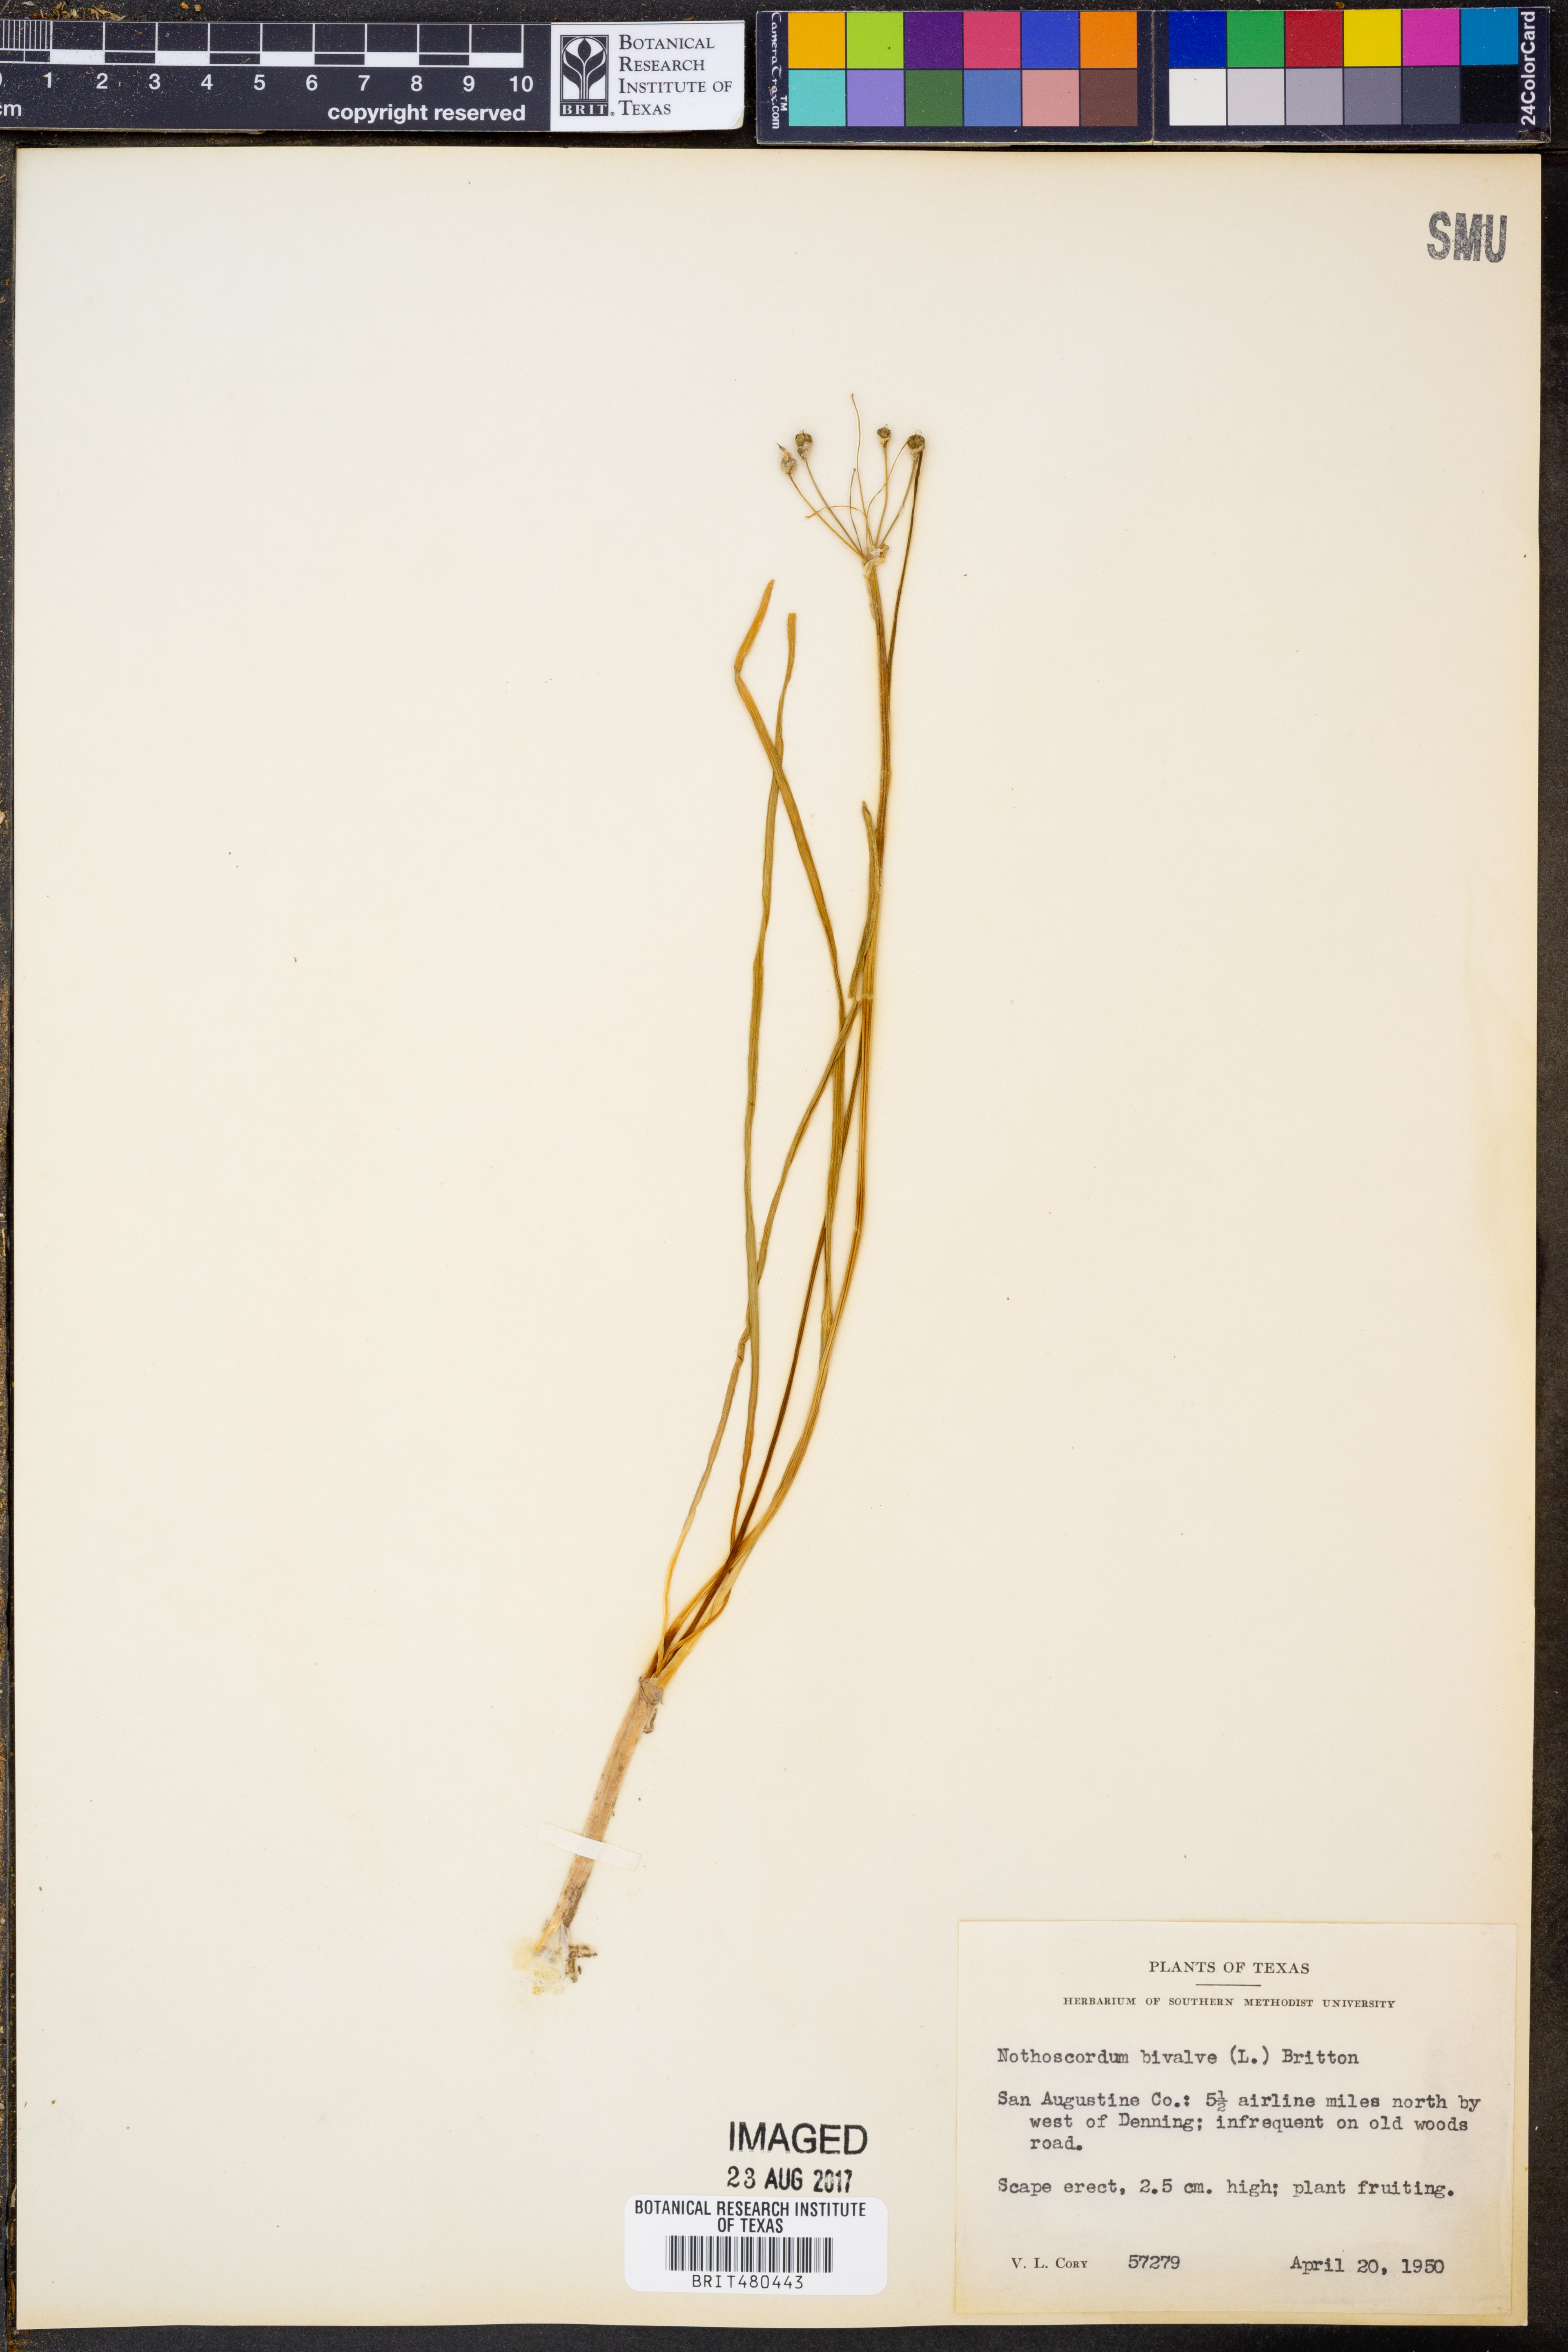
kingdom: Plantae
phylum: Tracheophyta
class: Liliopsida
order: Asparagales
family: Amaryllidaceae
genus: Nothoscordum
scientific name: Nothoscordum bivalve
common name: Crow-poison
